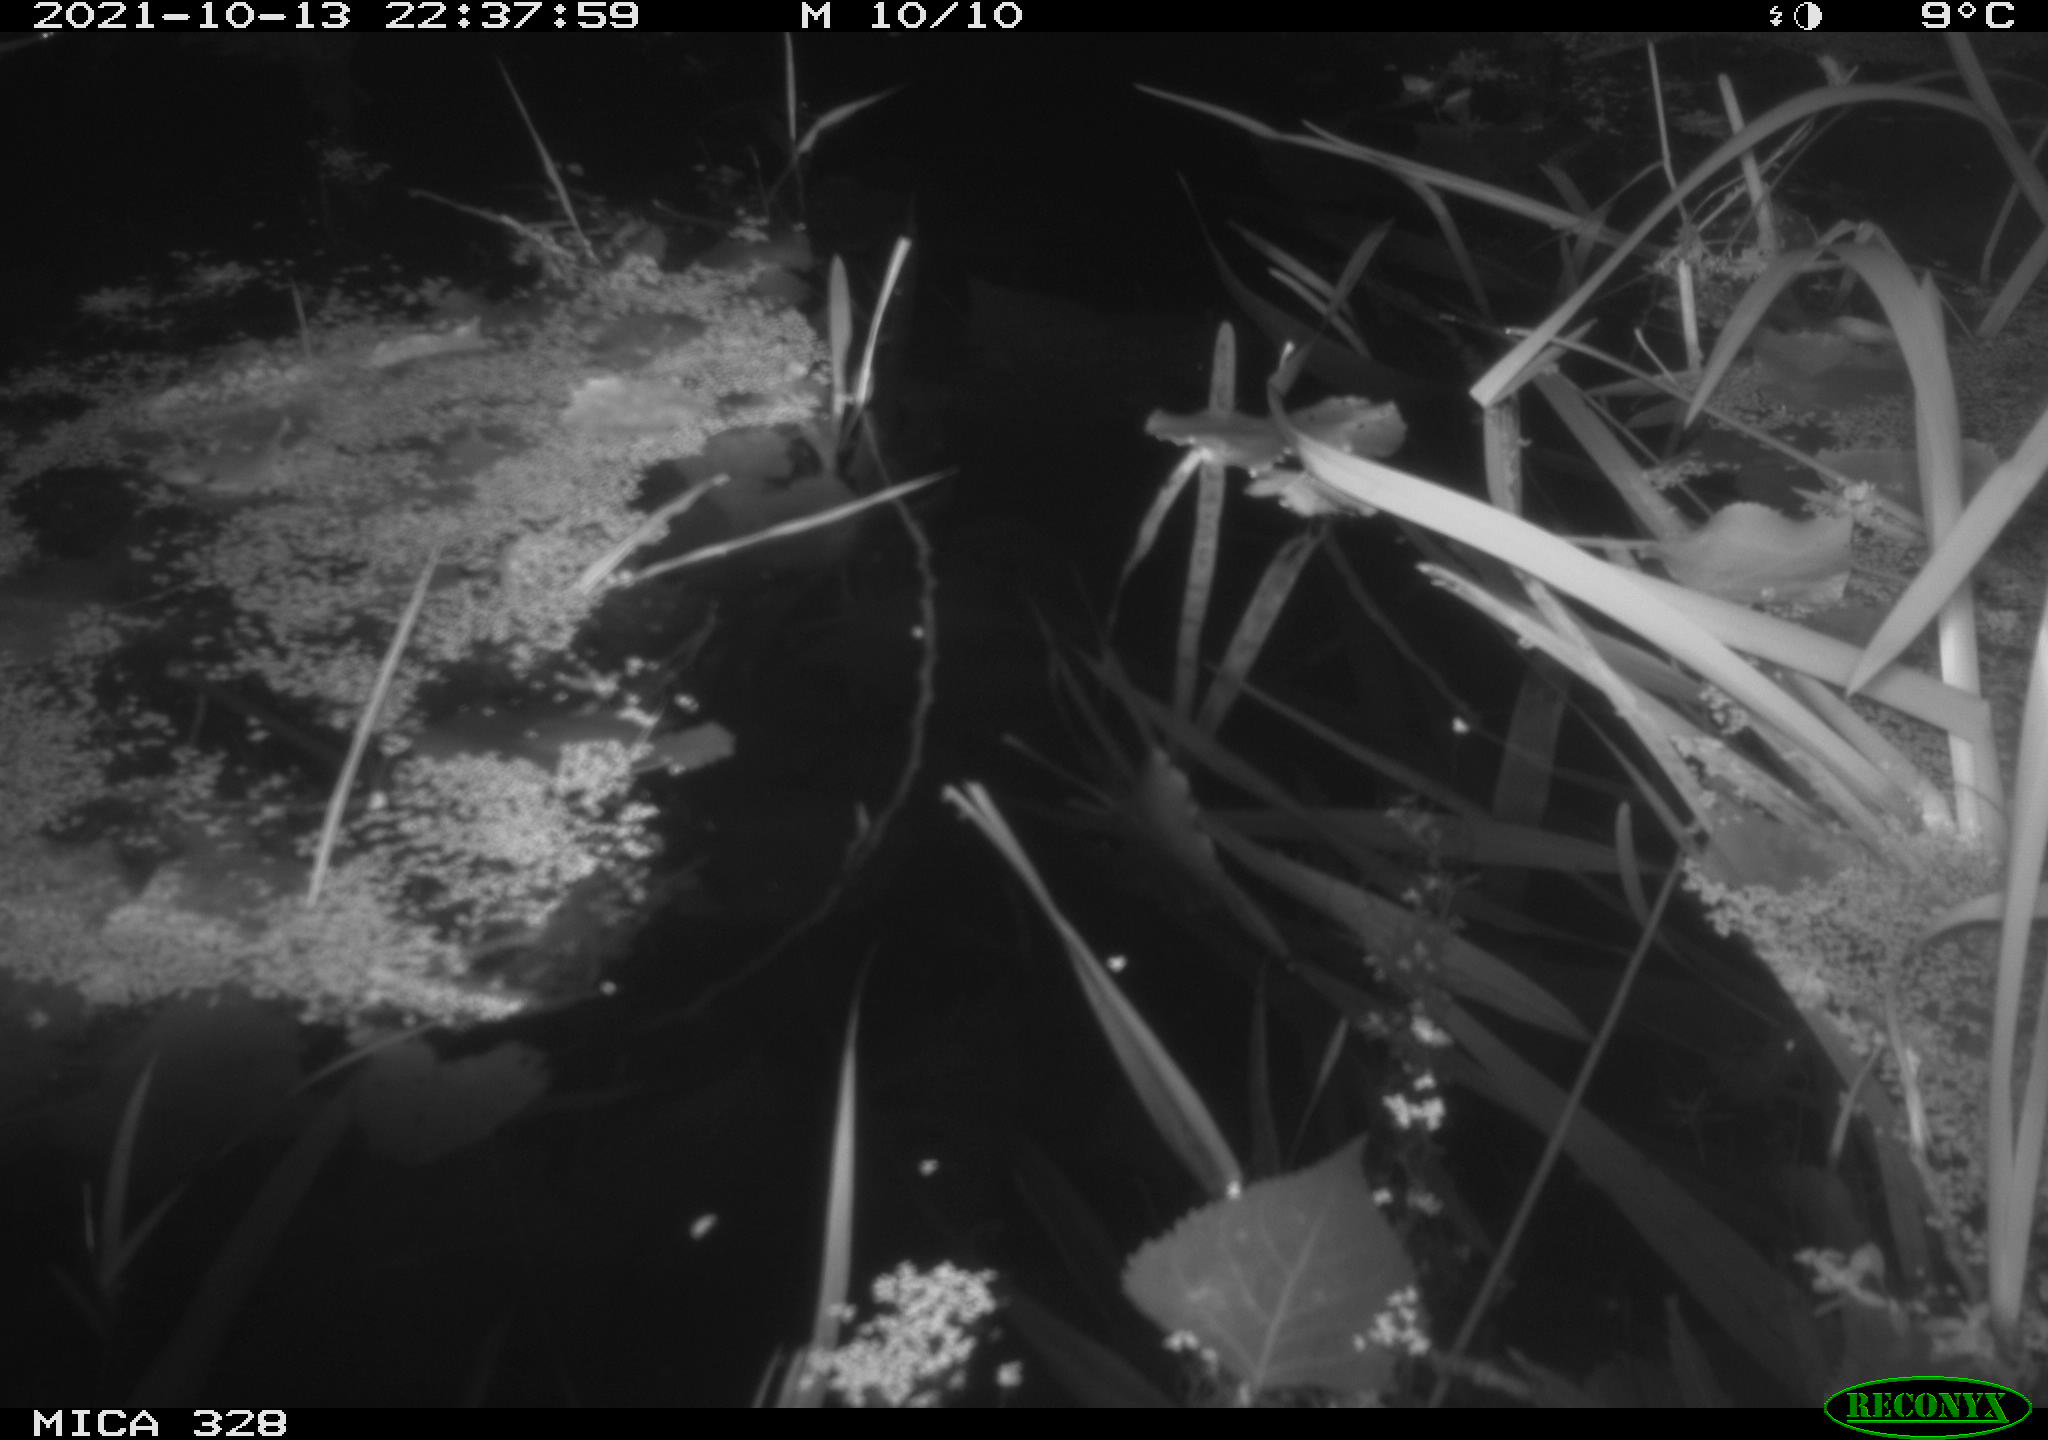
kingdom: Animalia
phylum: Chordata
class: Mammalia
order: Rodentia
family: Cricetidae
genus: Ondatra
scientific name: Ondatra zibethicus
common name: Muskrat
